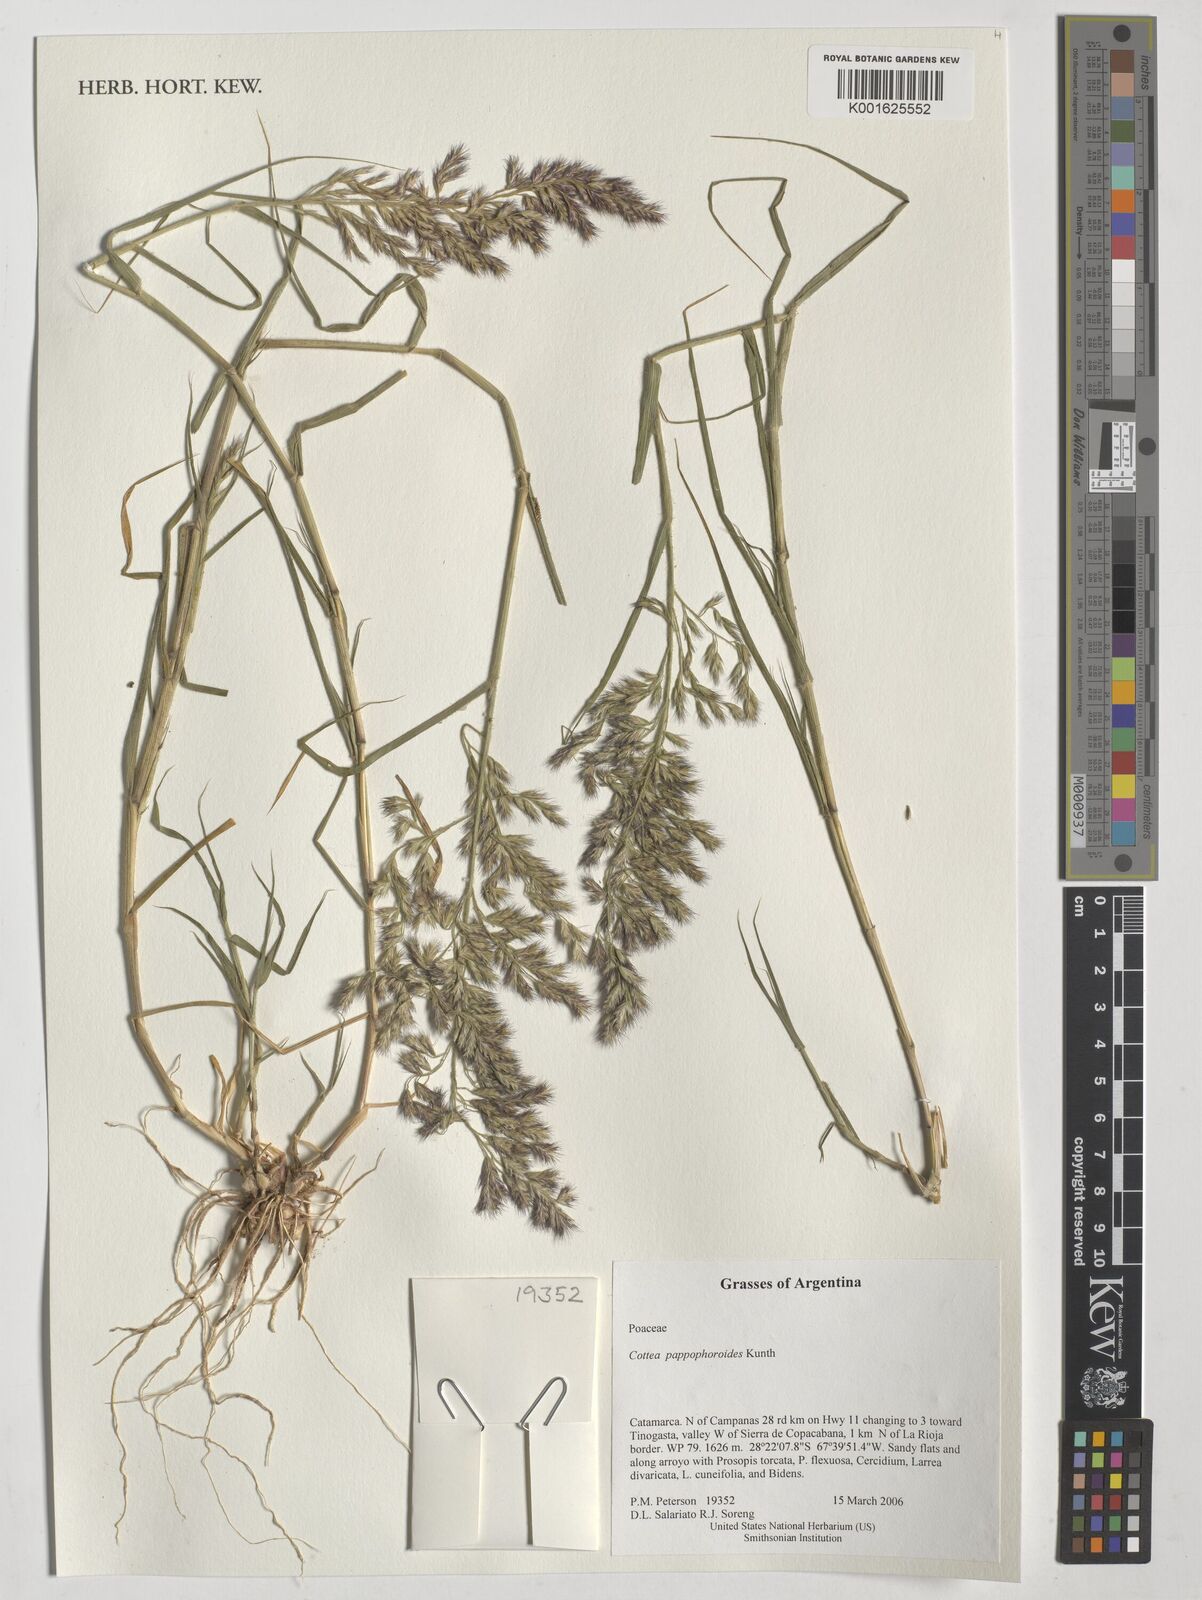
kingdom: Plantae
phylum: Tracheophyta
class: Liliopsida
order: Poales
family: Poaceae
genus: Cottea
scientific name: Cottea pappophoroides
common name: Cotta grass
